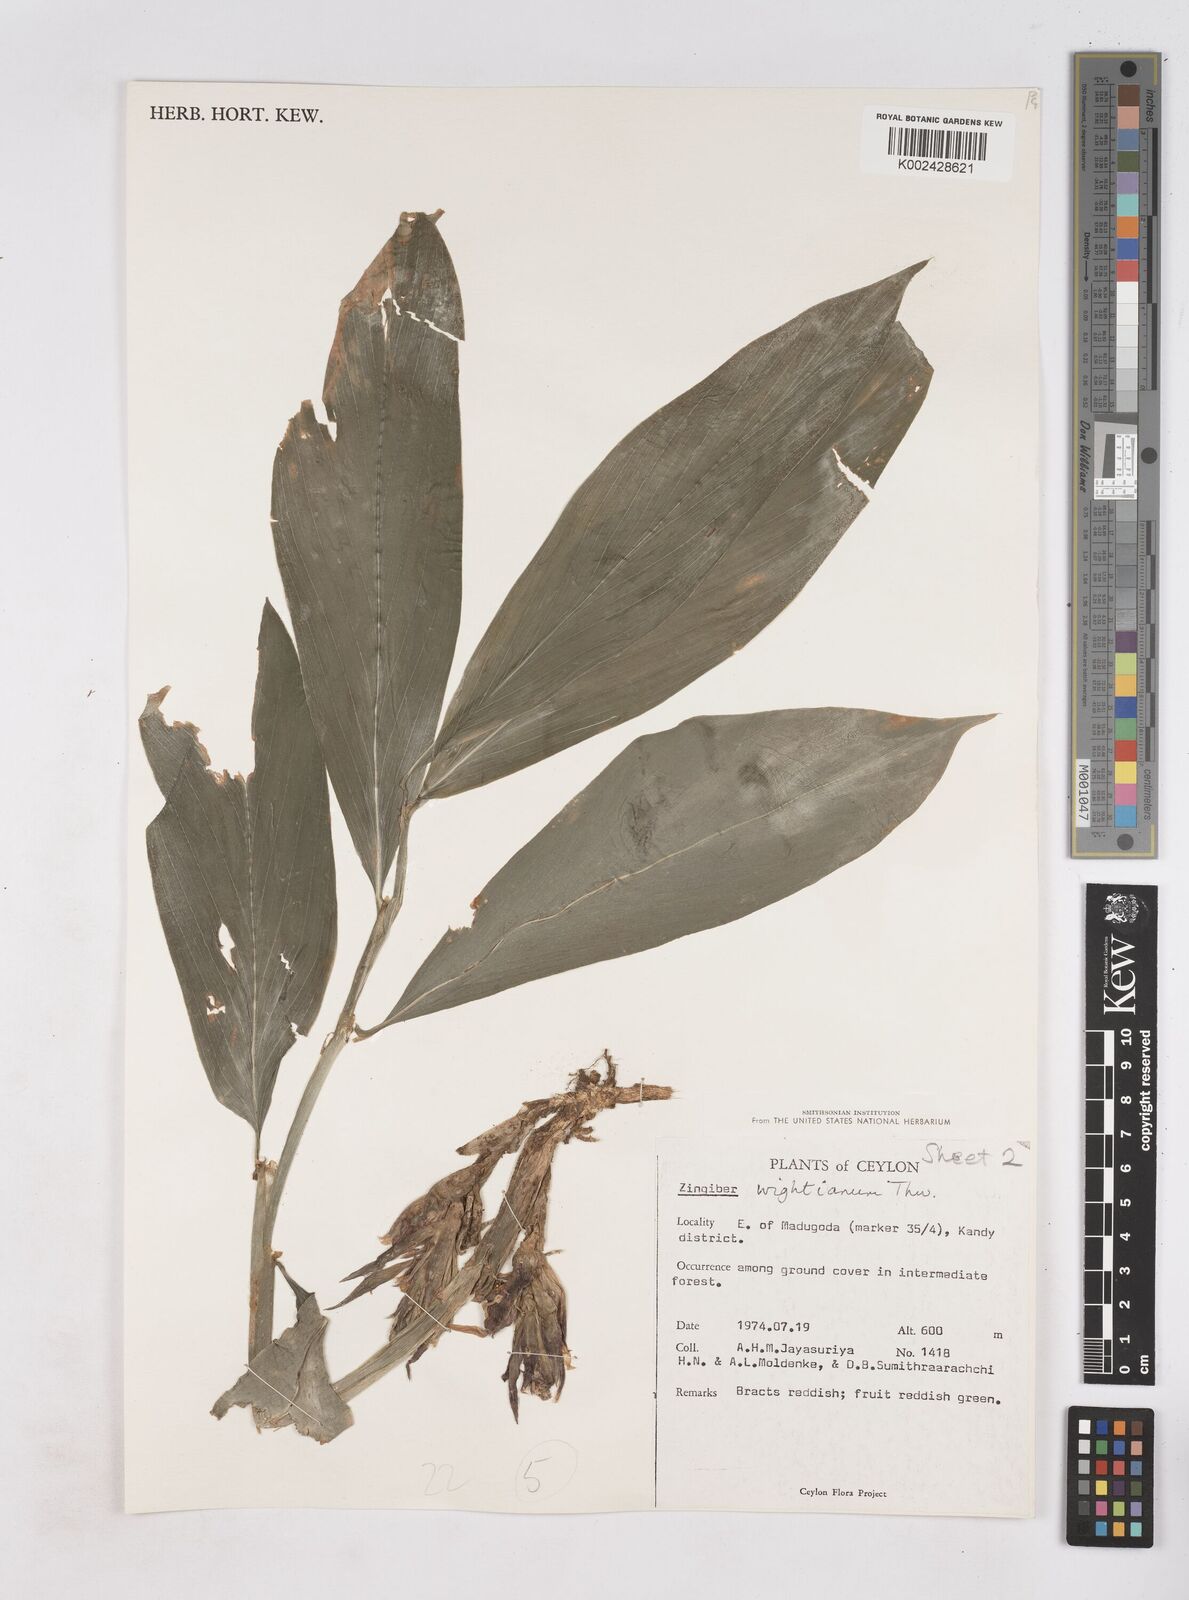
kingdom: Plantae
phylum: Tracheophyta
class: Liliopsida
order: Zingiberales
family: Zingiberaceae
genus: Zingiber
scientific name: Zingiber wightianum
